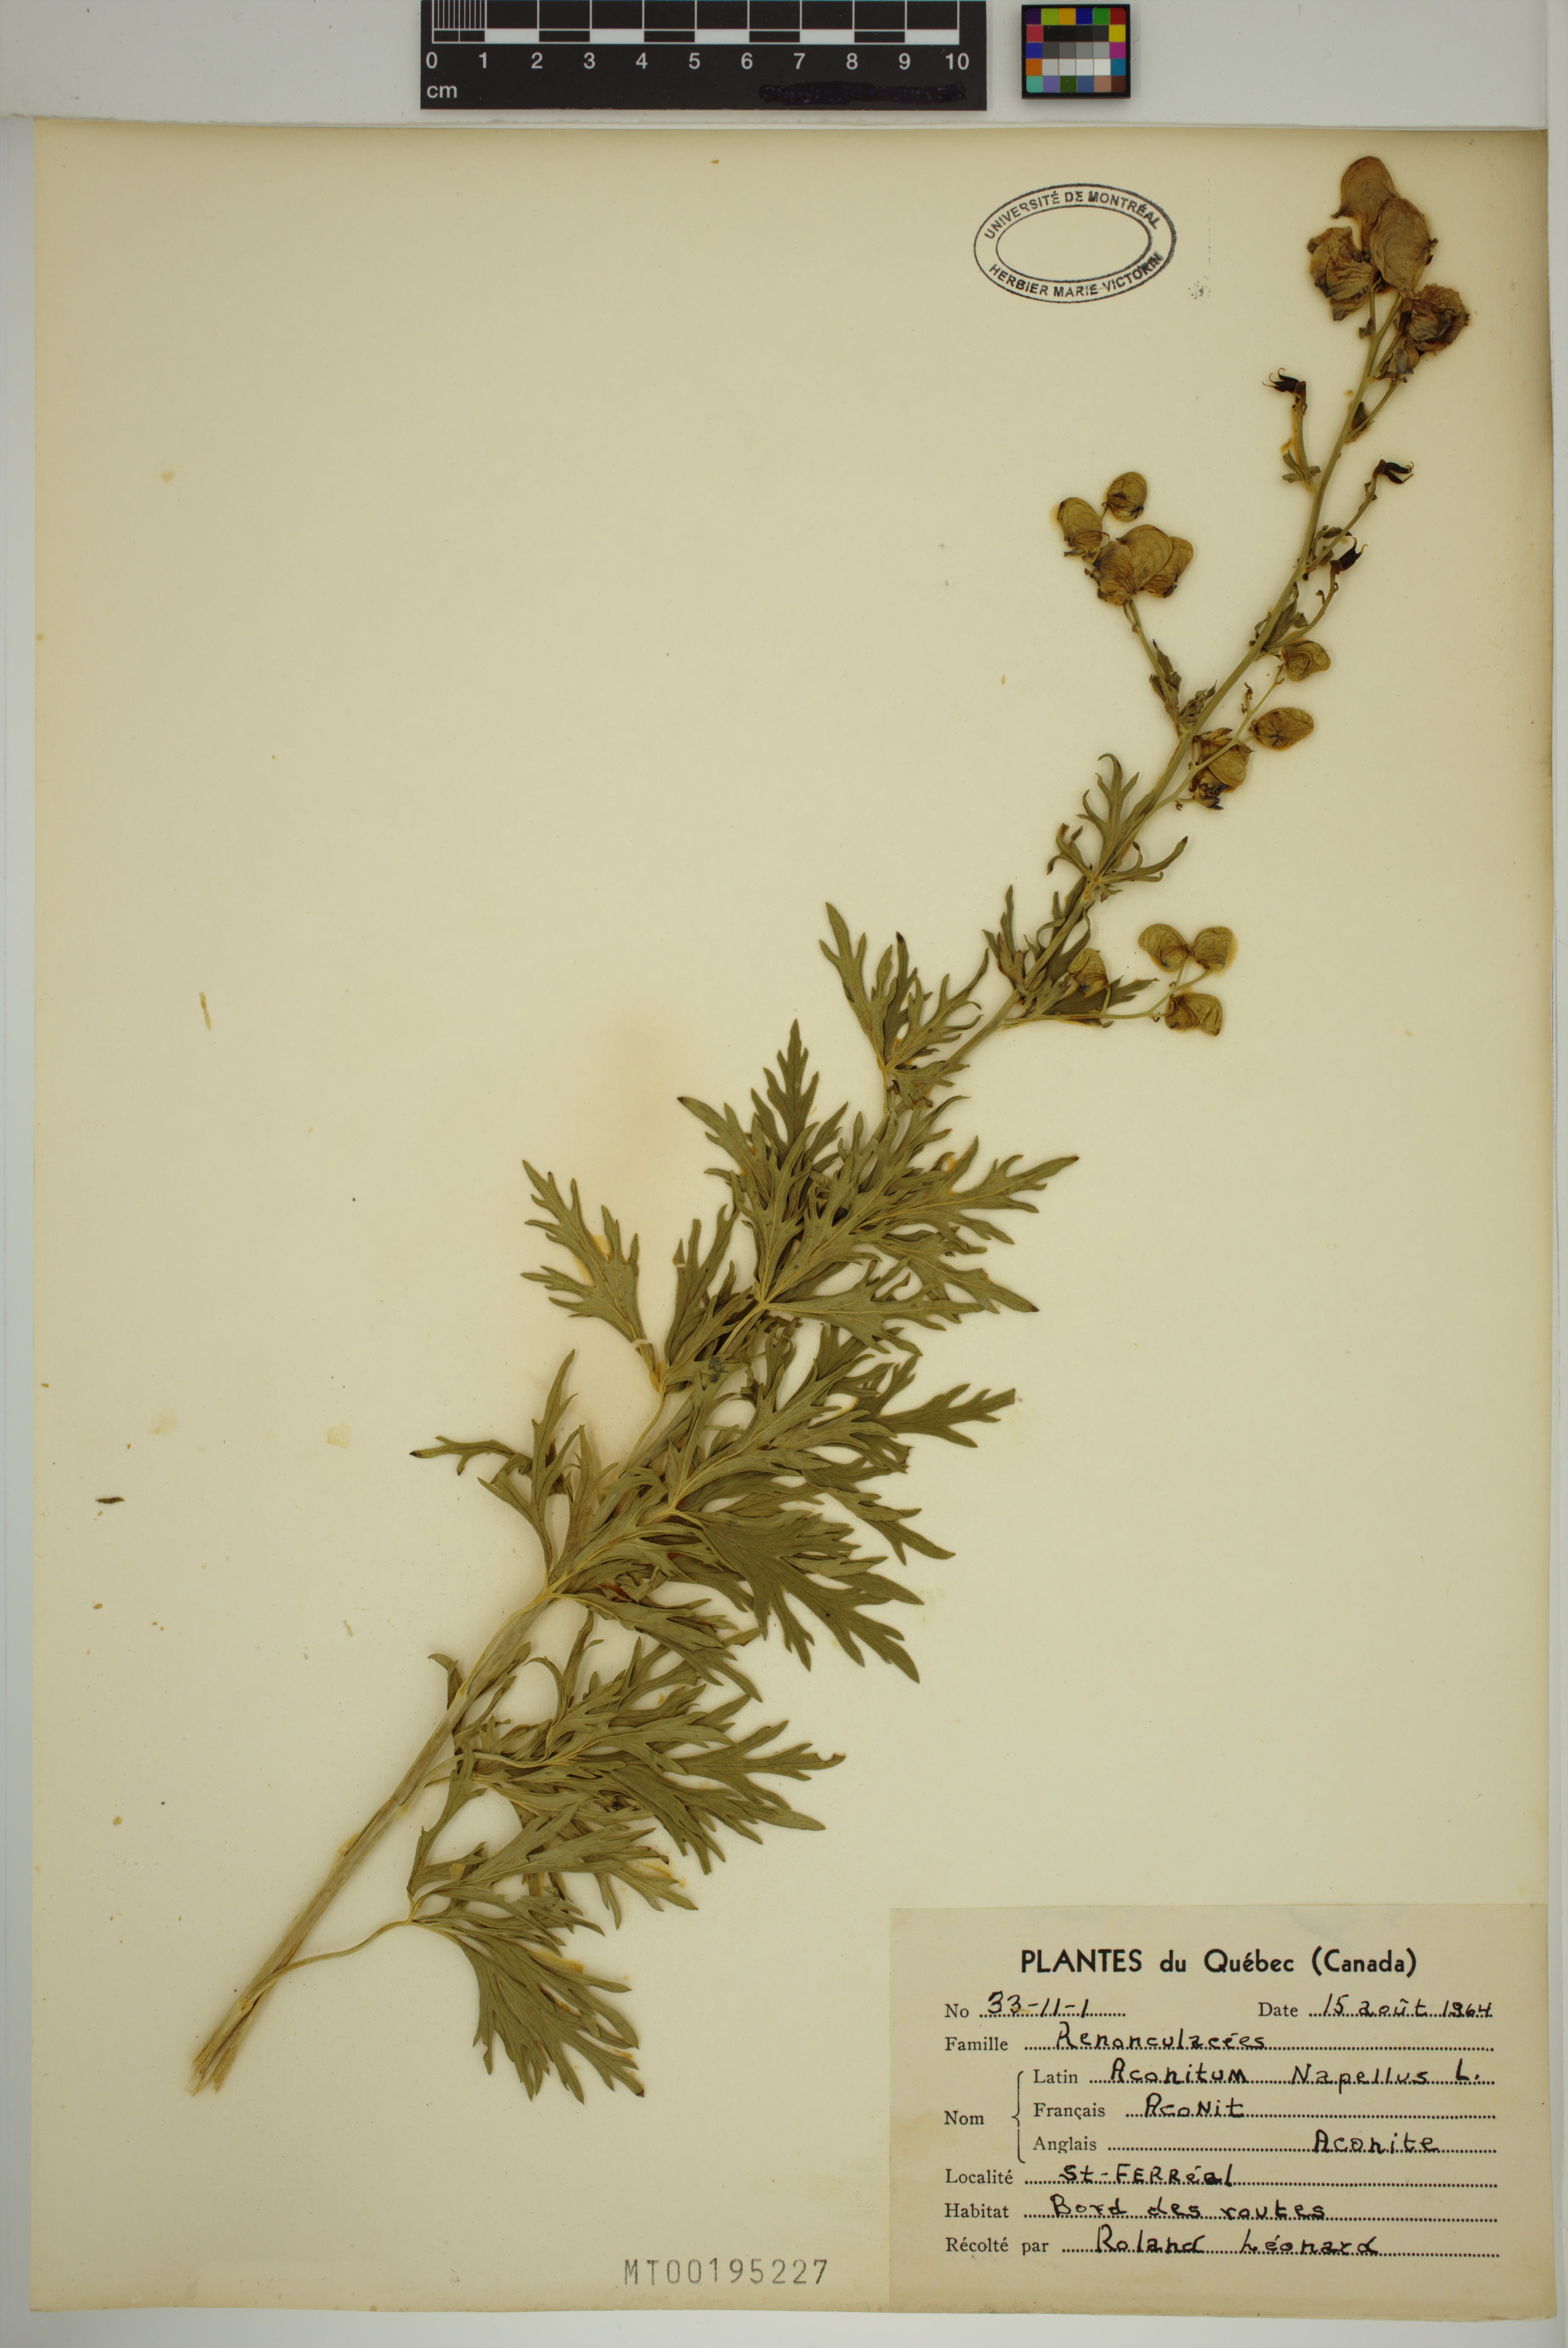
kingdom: Plantae
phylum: Tracheophyta
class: Magnoliopsida
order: Ranunculales
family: Ranunculaceae
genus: Aconitum
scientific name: Aconitum napellus
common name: Garden monkshood
